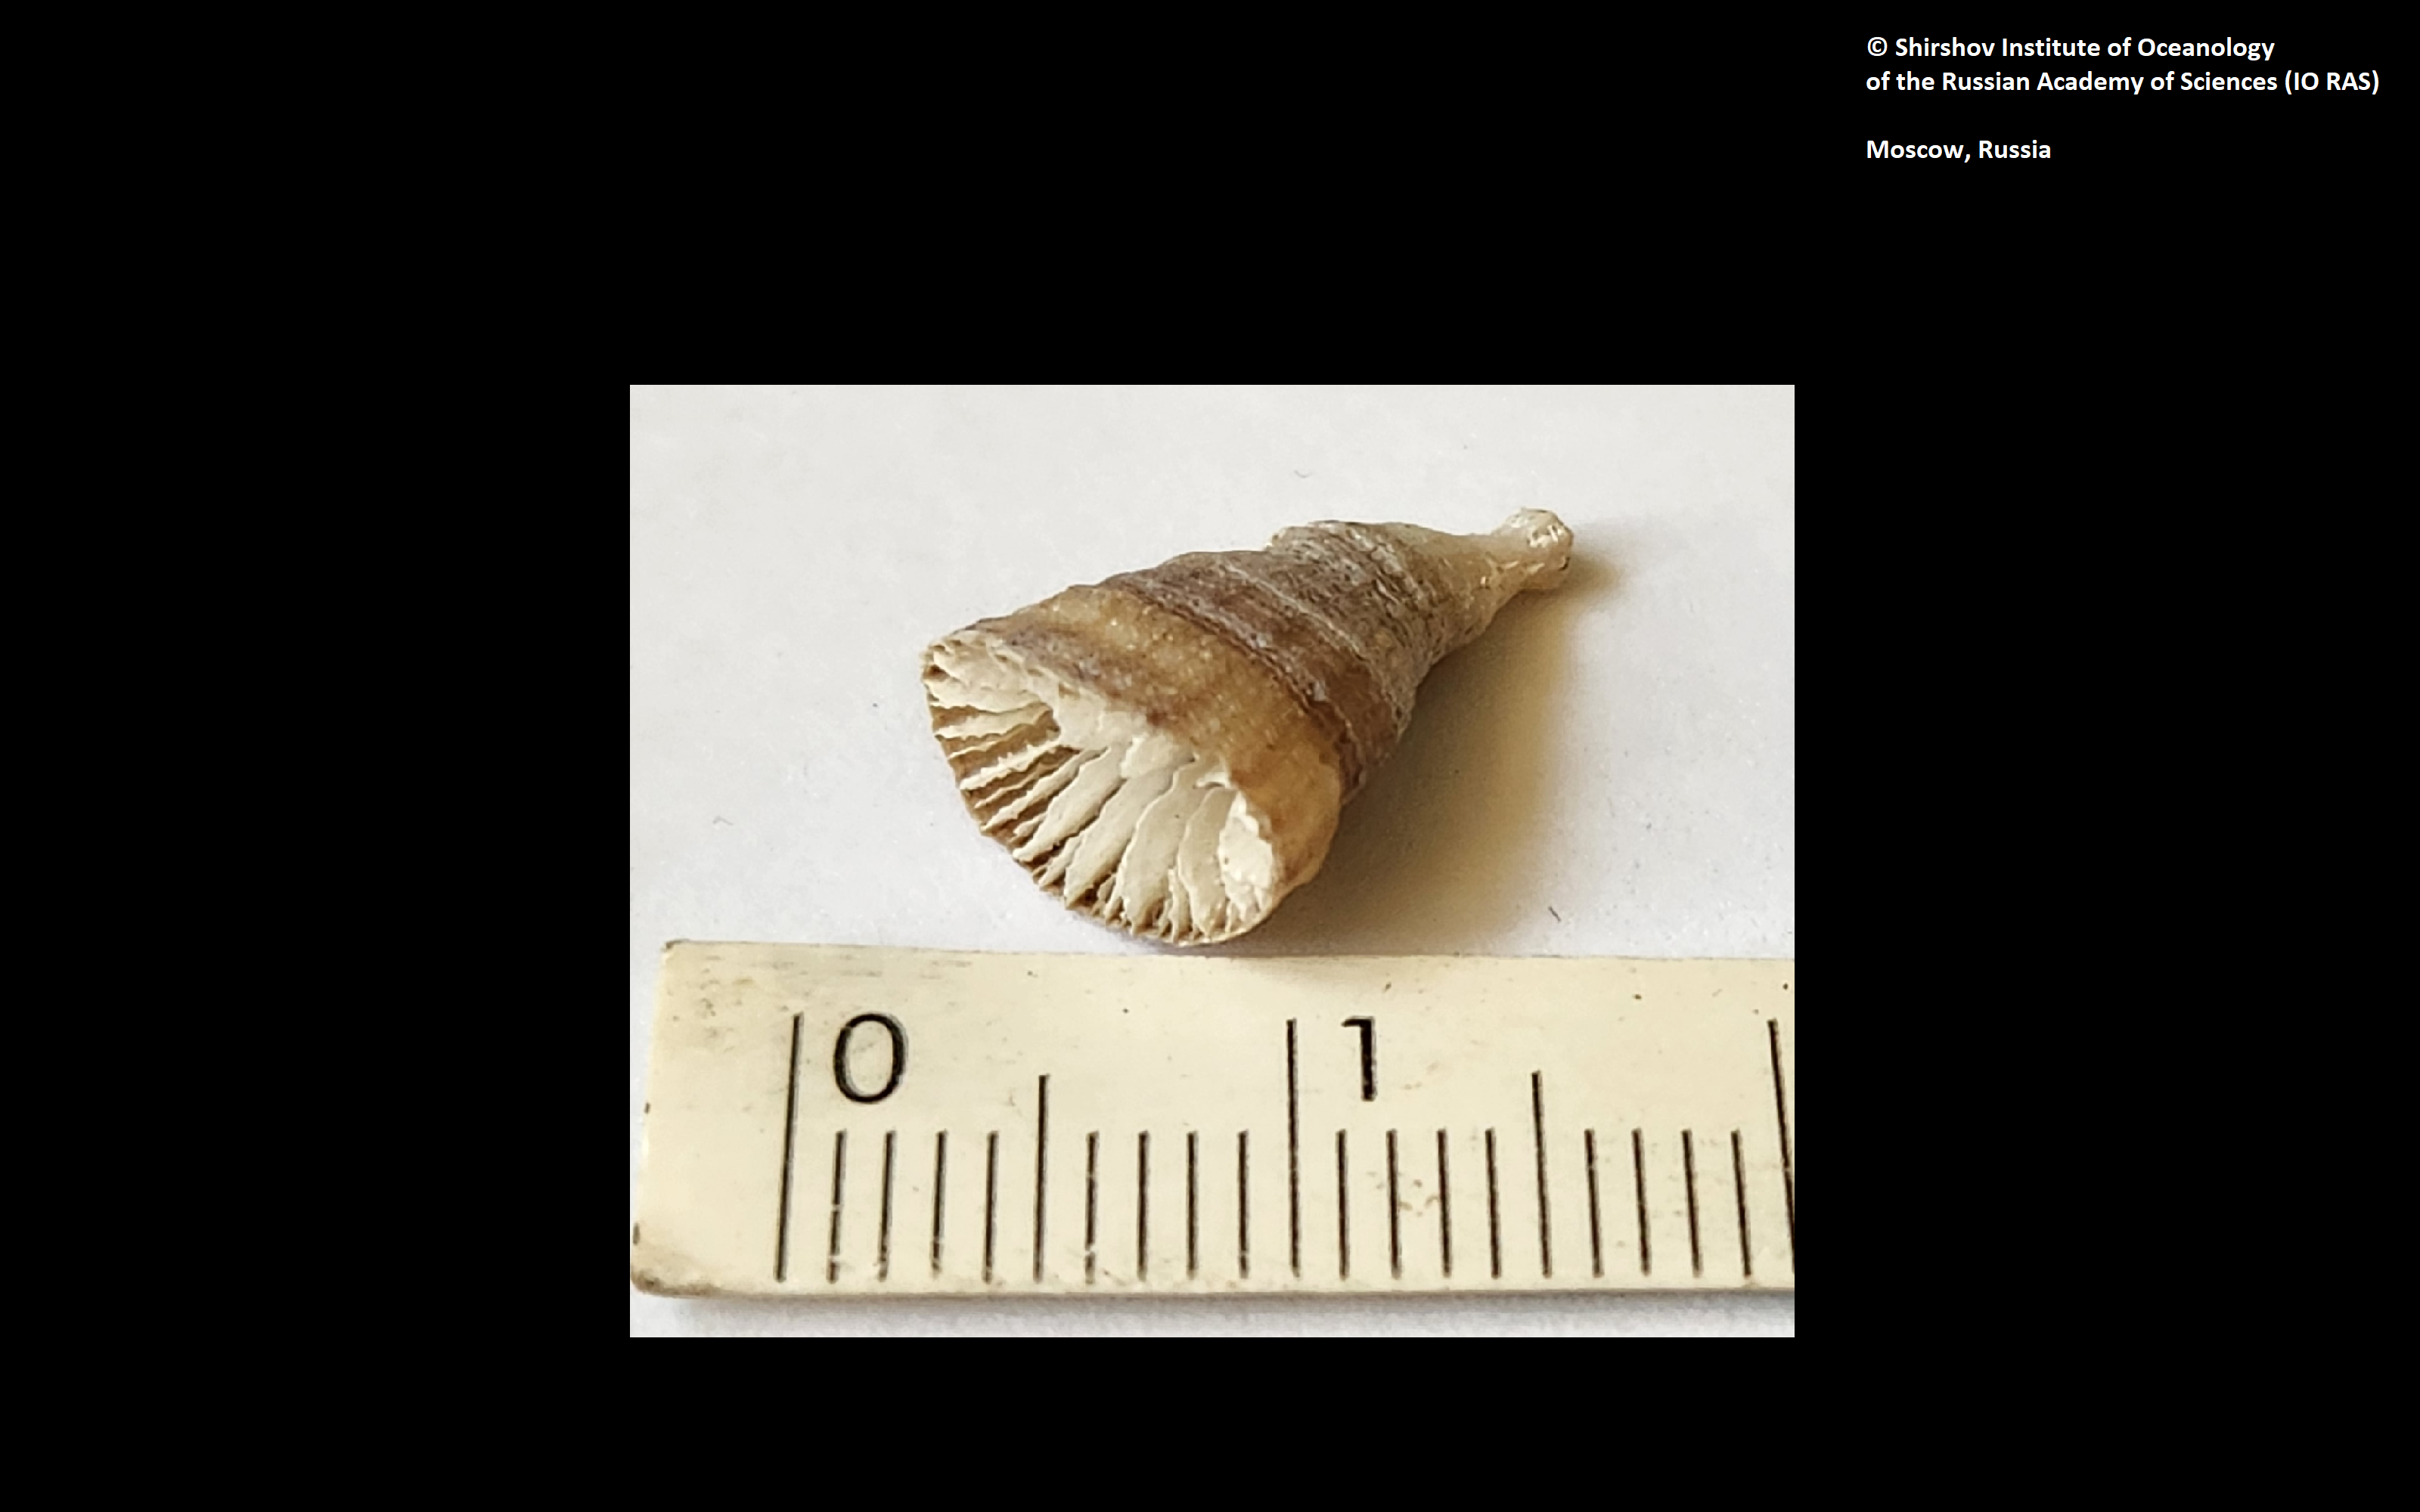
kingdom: Animalia
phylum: Cnidaria
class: Anthozoa
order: Scleractinia
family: Flabellidae
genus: Truncatoflabellum
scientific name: Truncatoflabellum zuluense
